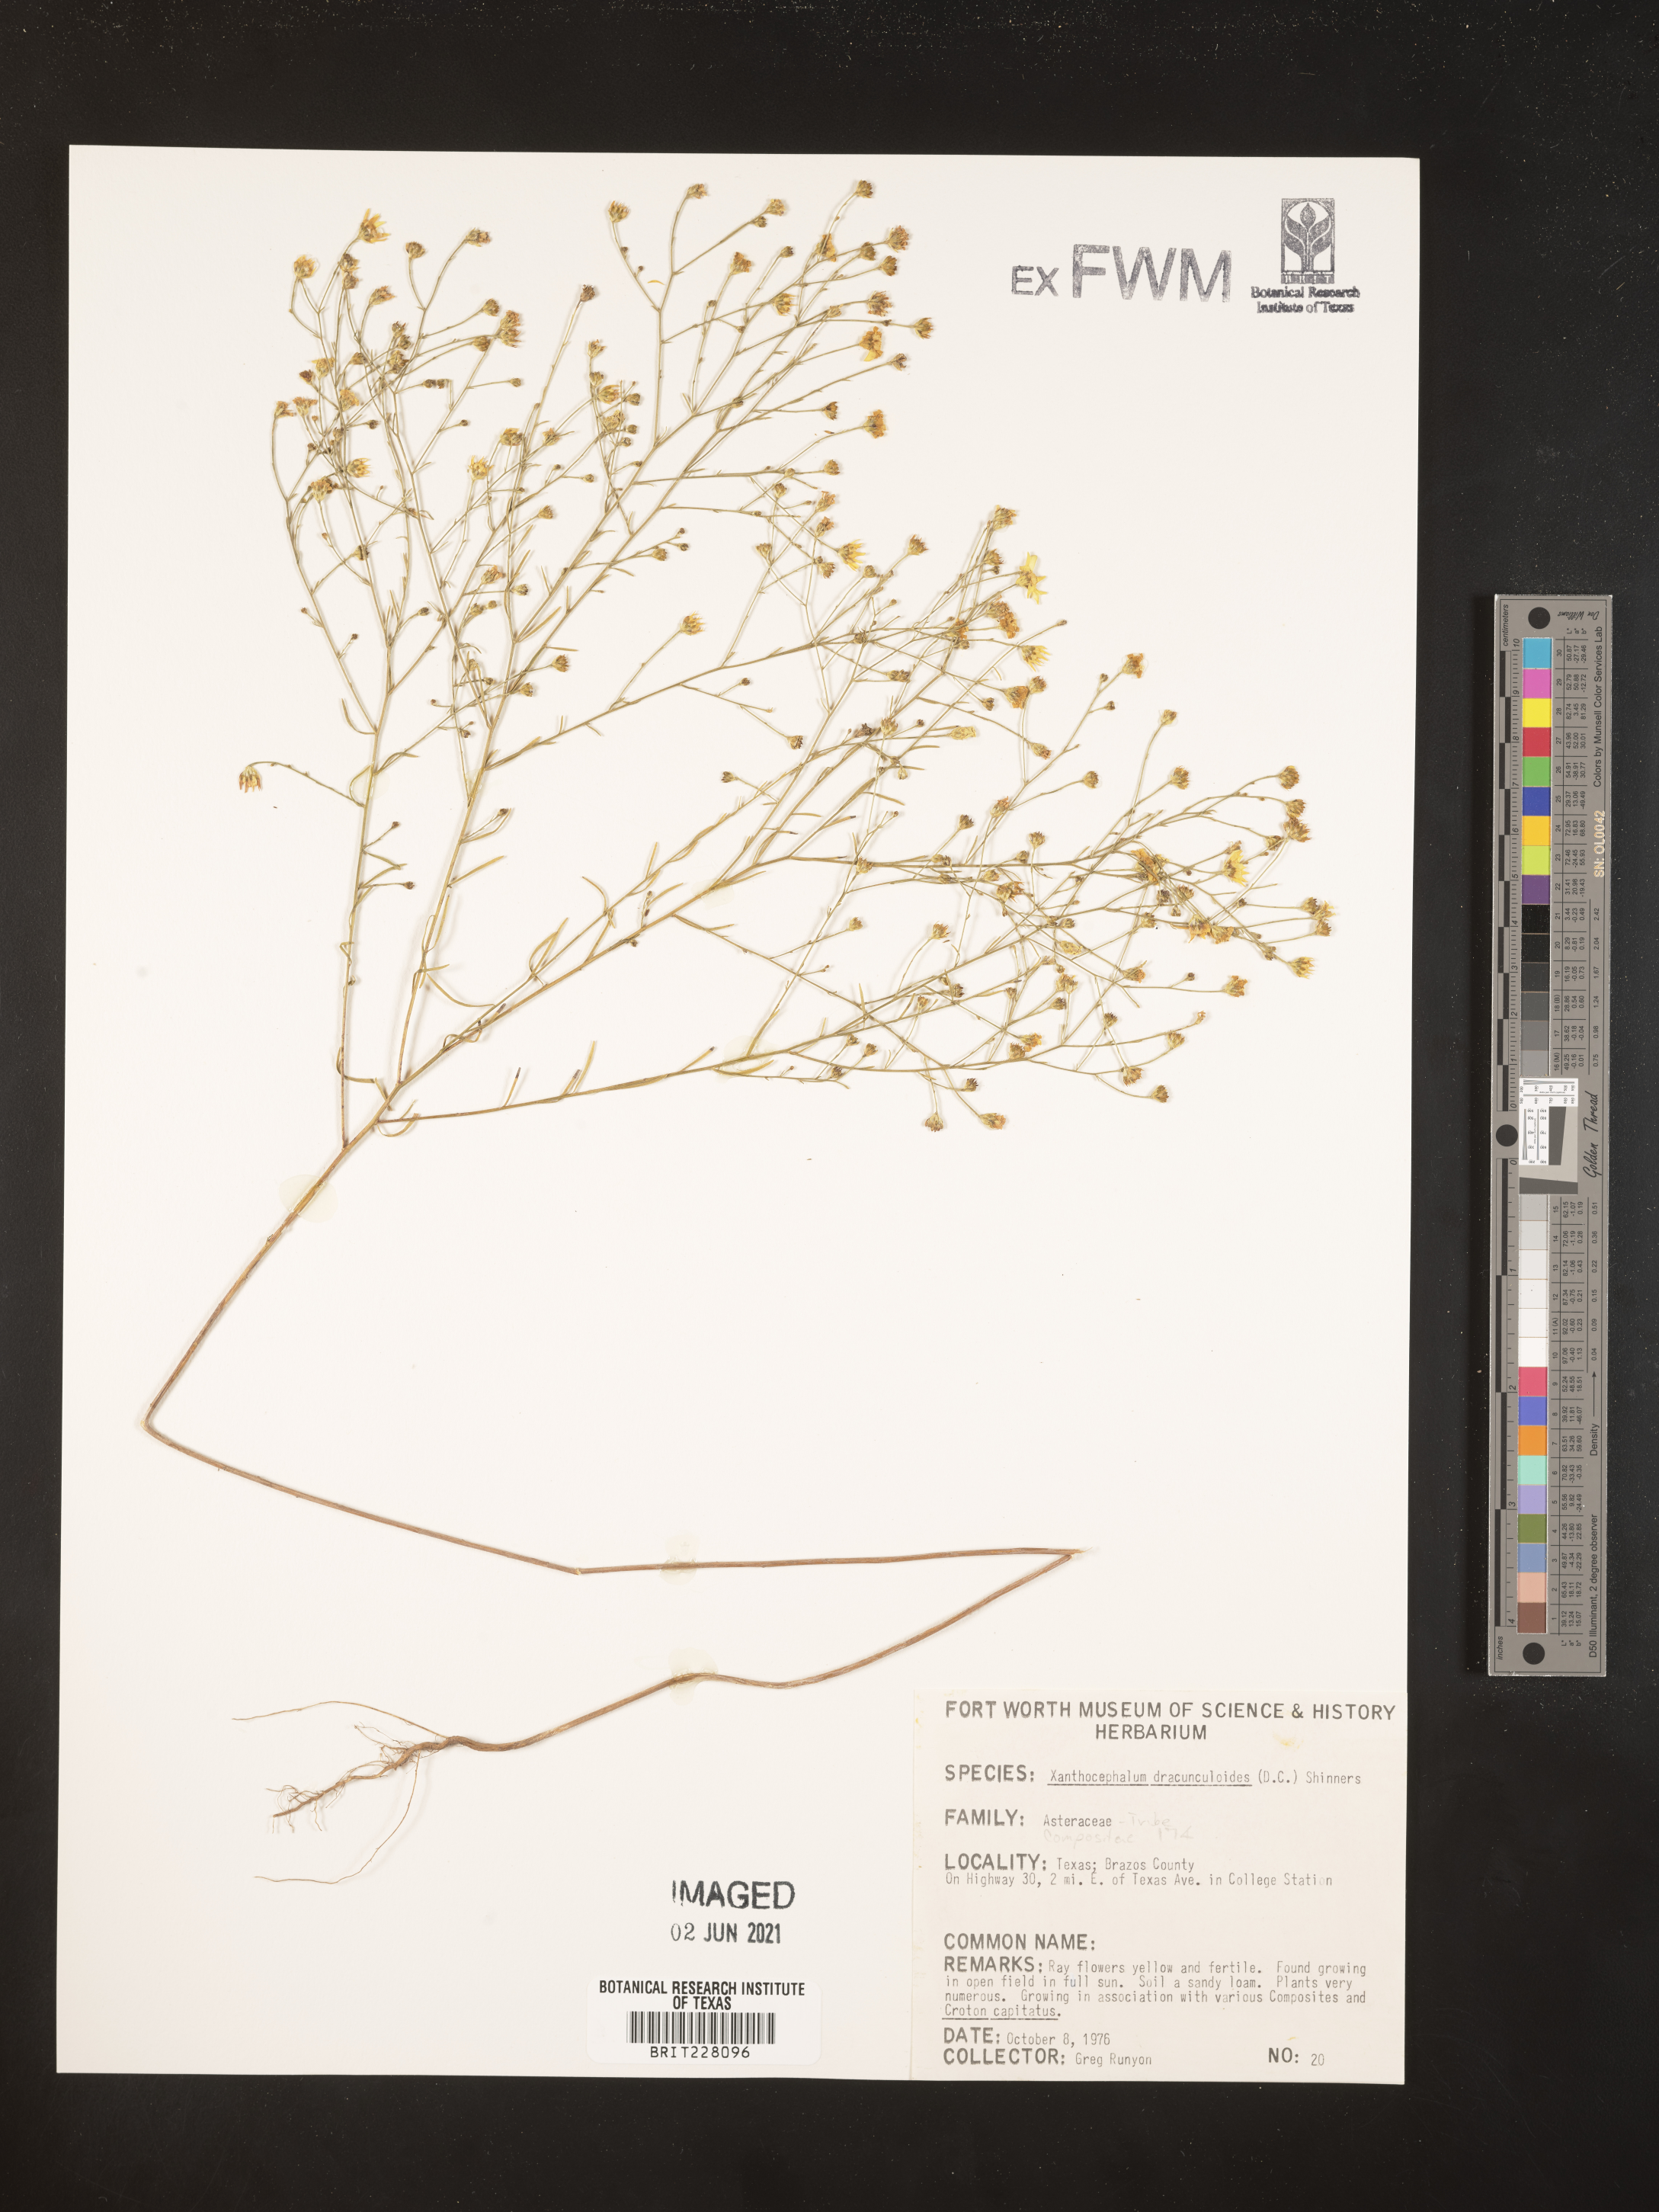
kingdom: Plantae
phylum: Tracheophyta
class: Magnoliopsida
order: Asterales
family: Asteraceae
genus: Amphiachyris
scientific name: Amphiachyris dracunculoides
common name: Broomweed
